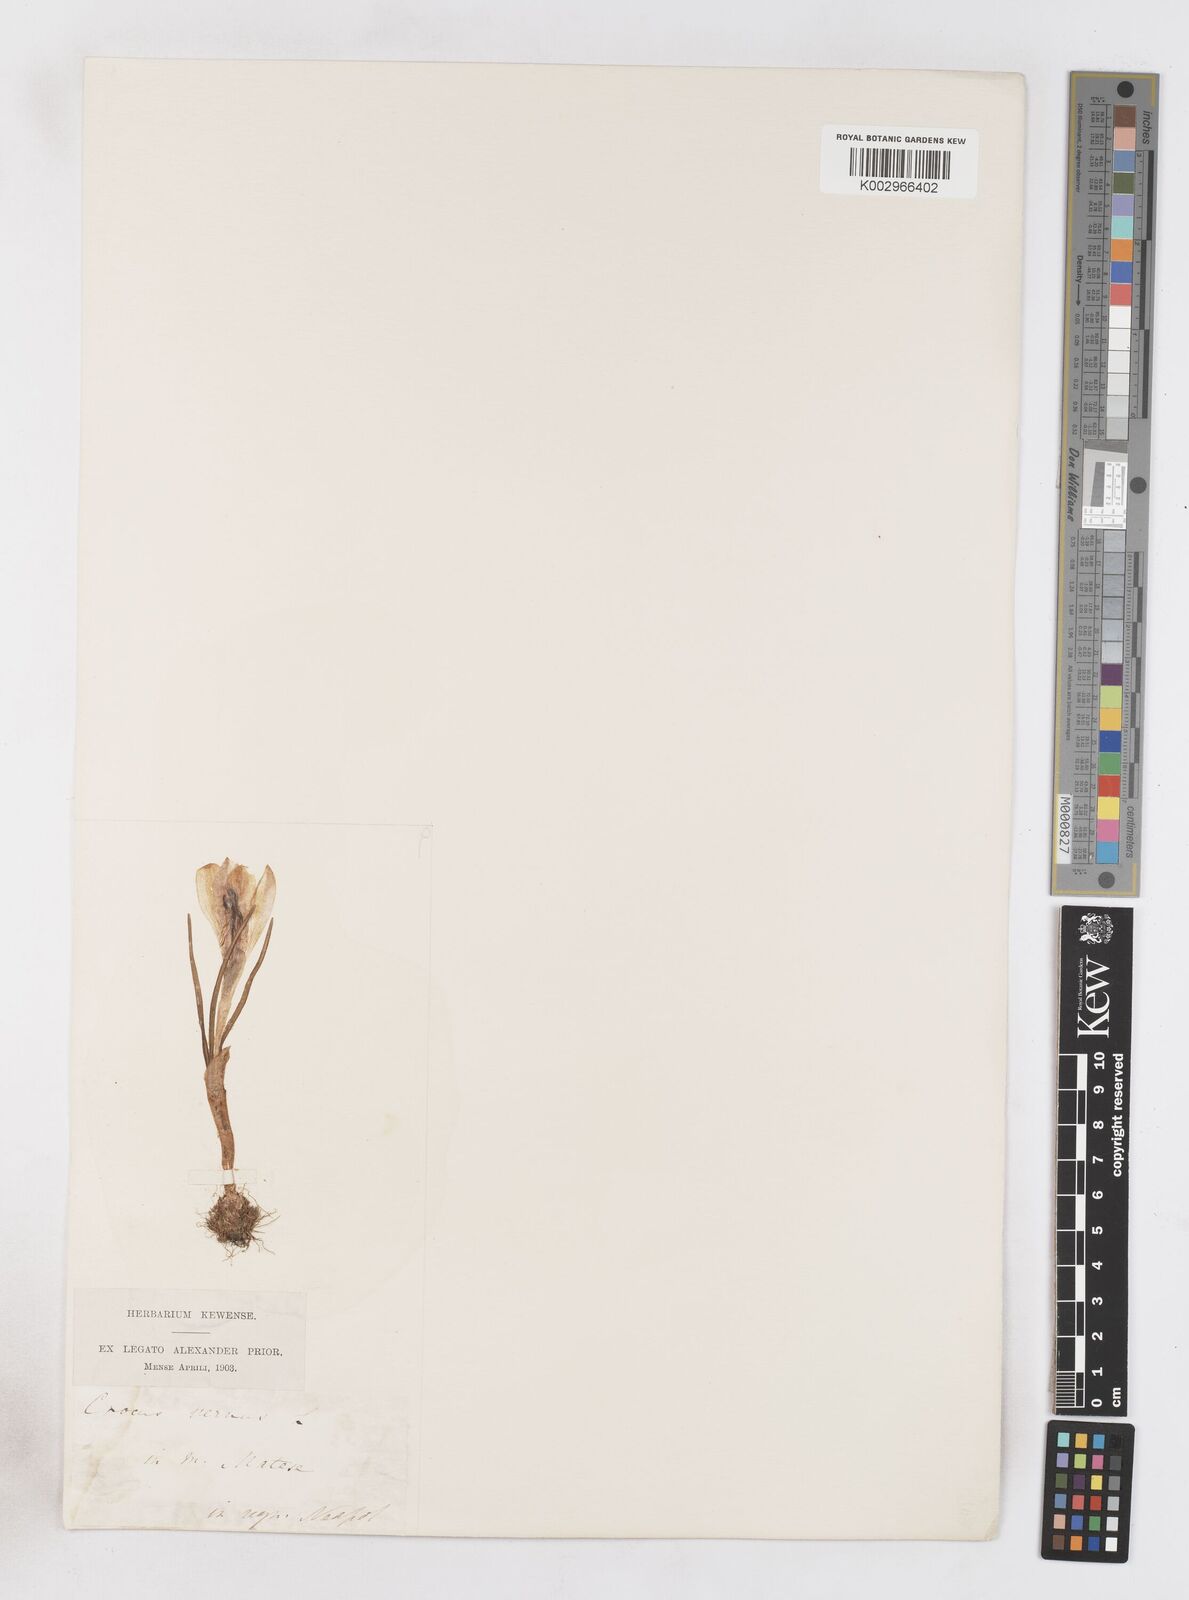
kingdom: Plantae
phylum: Tracheophyta
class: Liliopsida
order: Asparagales
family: Iridaceae
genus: Crocus
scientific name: Crocus vernus
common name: Spring crocus
